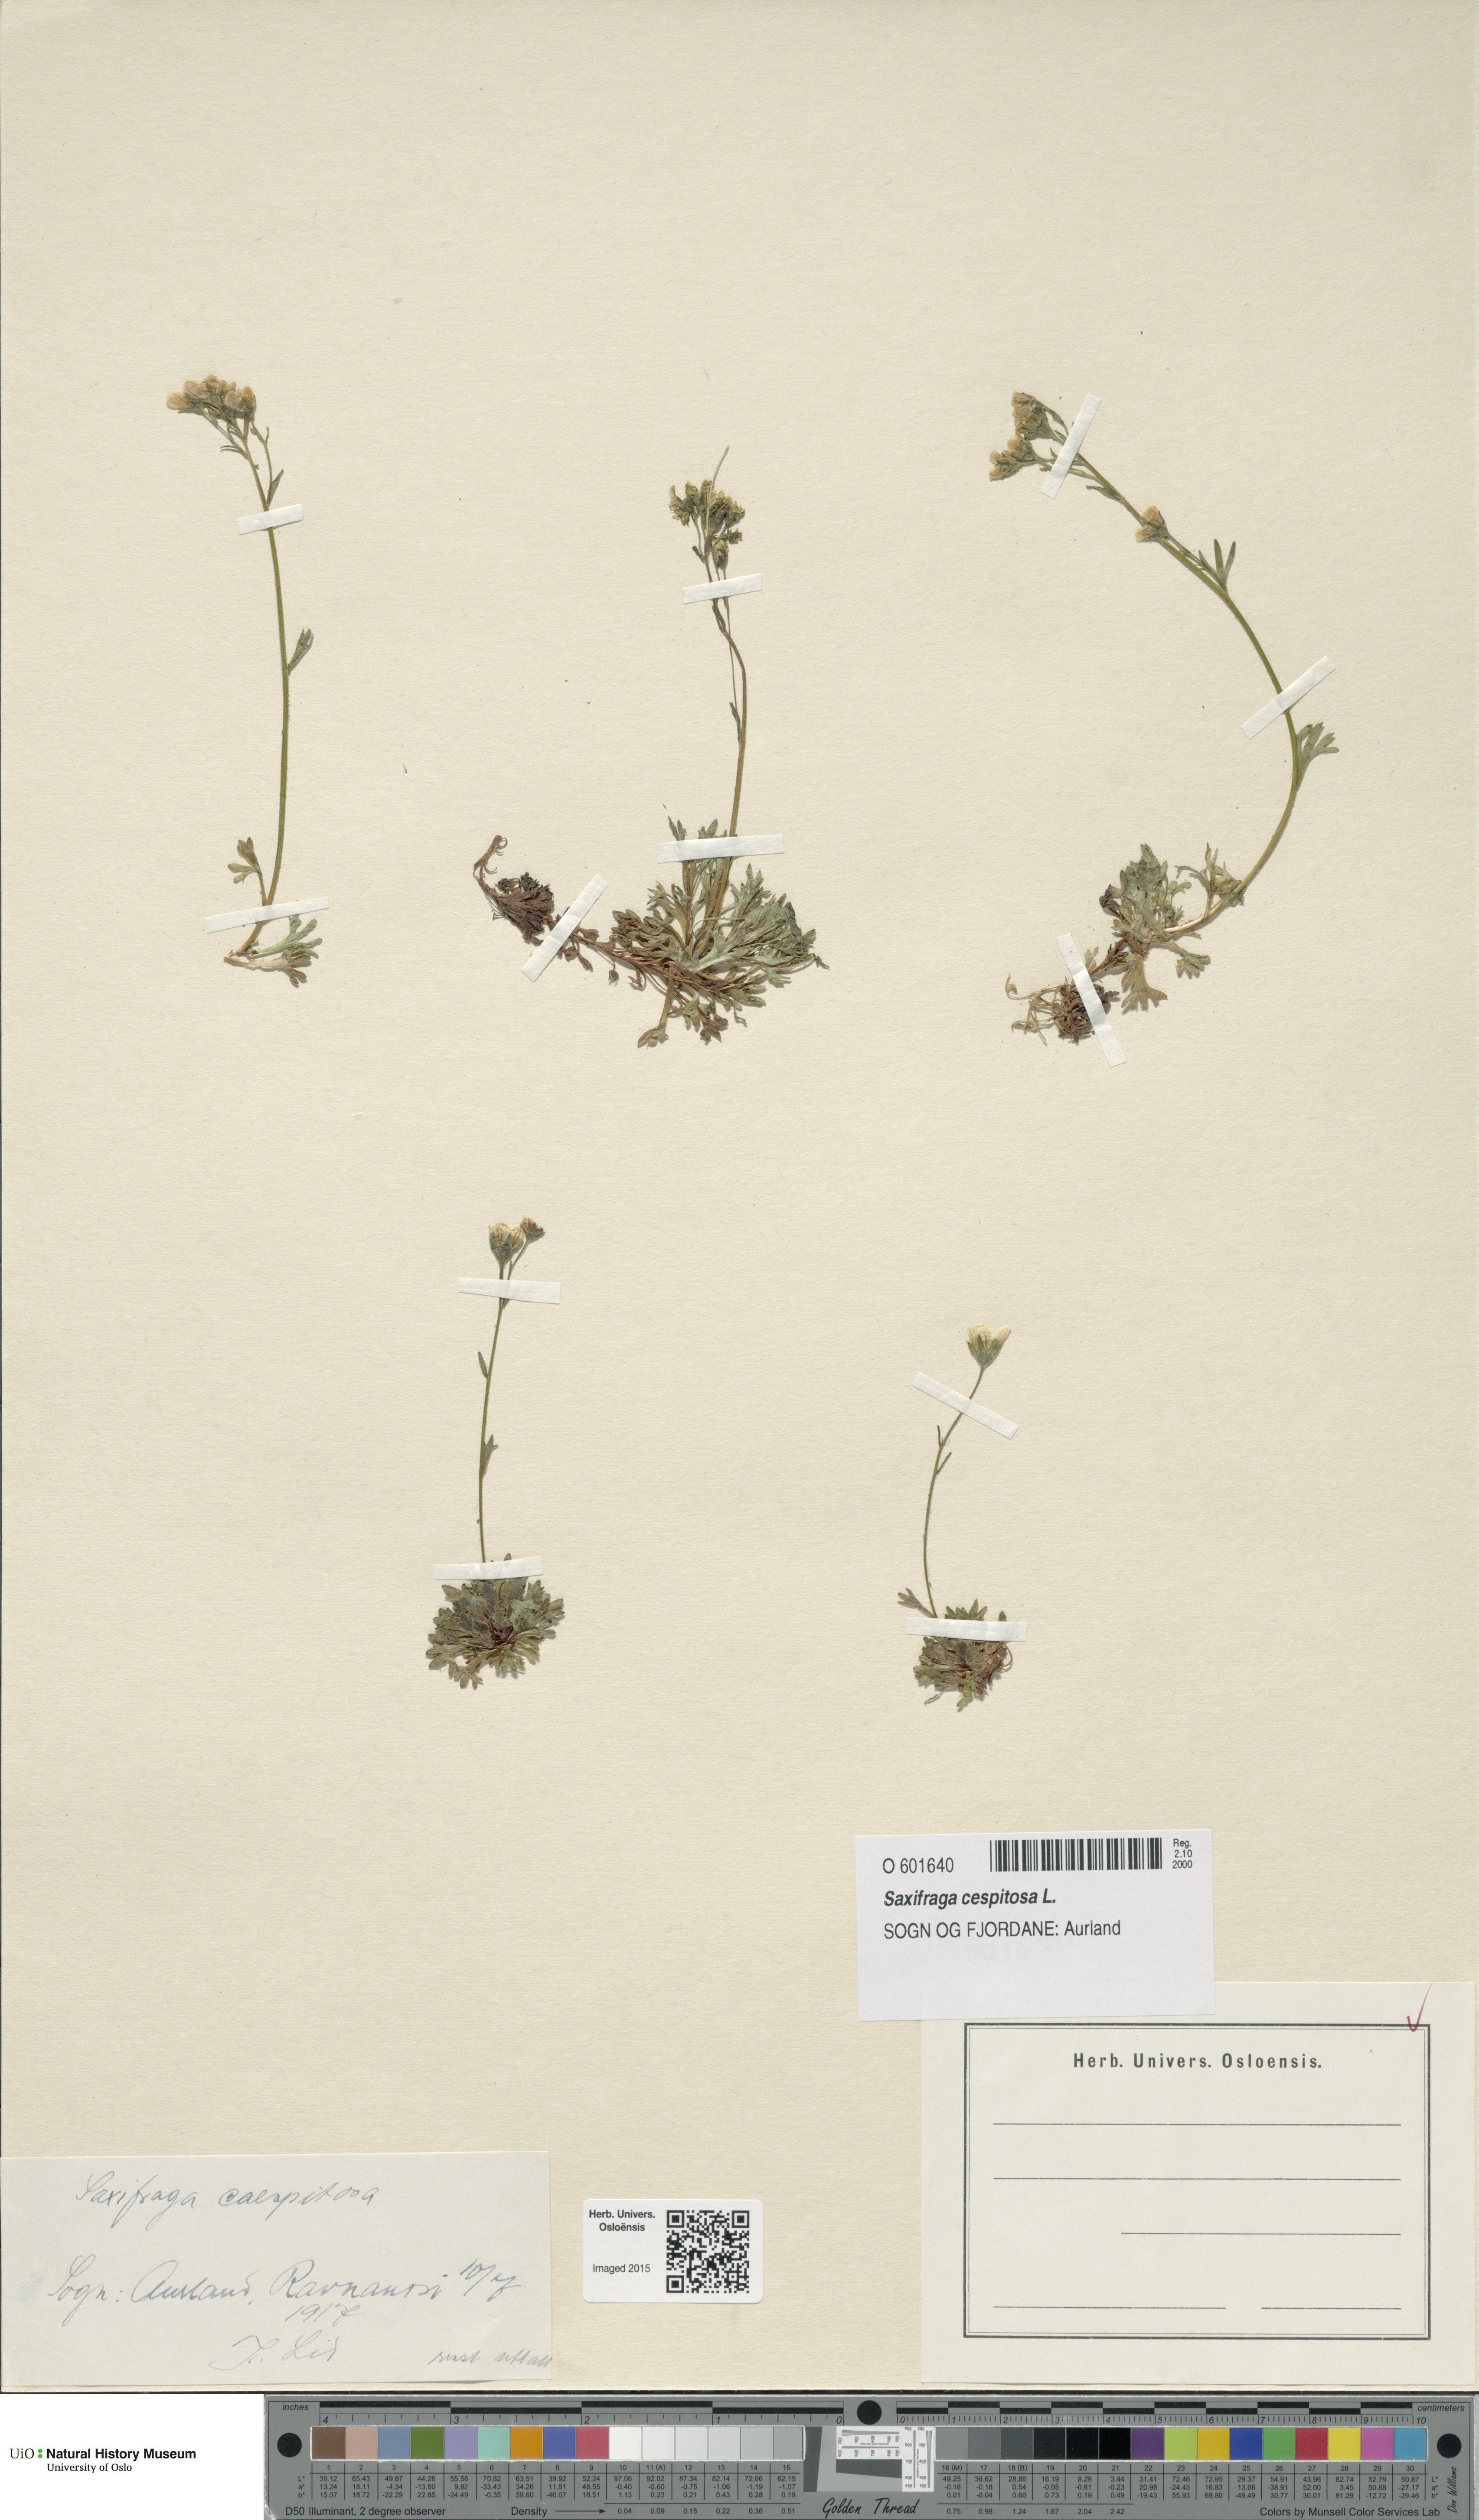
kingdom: Plantae
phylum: Tracheophyta
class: Magnoliopsida
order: Saxifragales
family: Saxifragaceae
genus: Saxifraga
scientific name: Saxifraga cespitosa
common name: Tufted saxifrage
